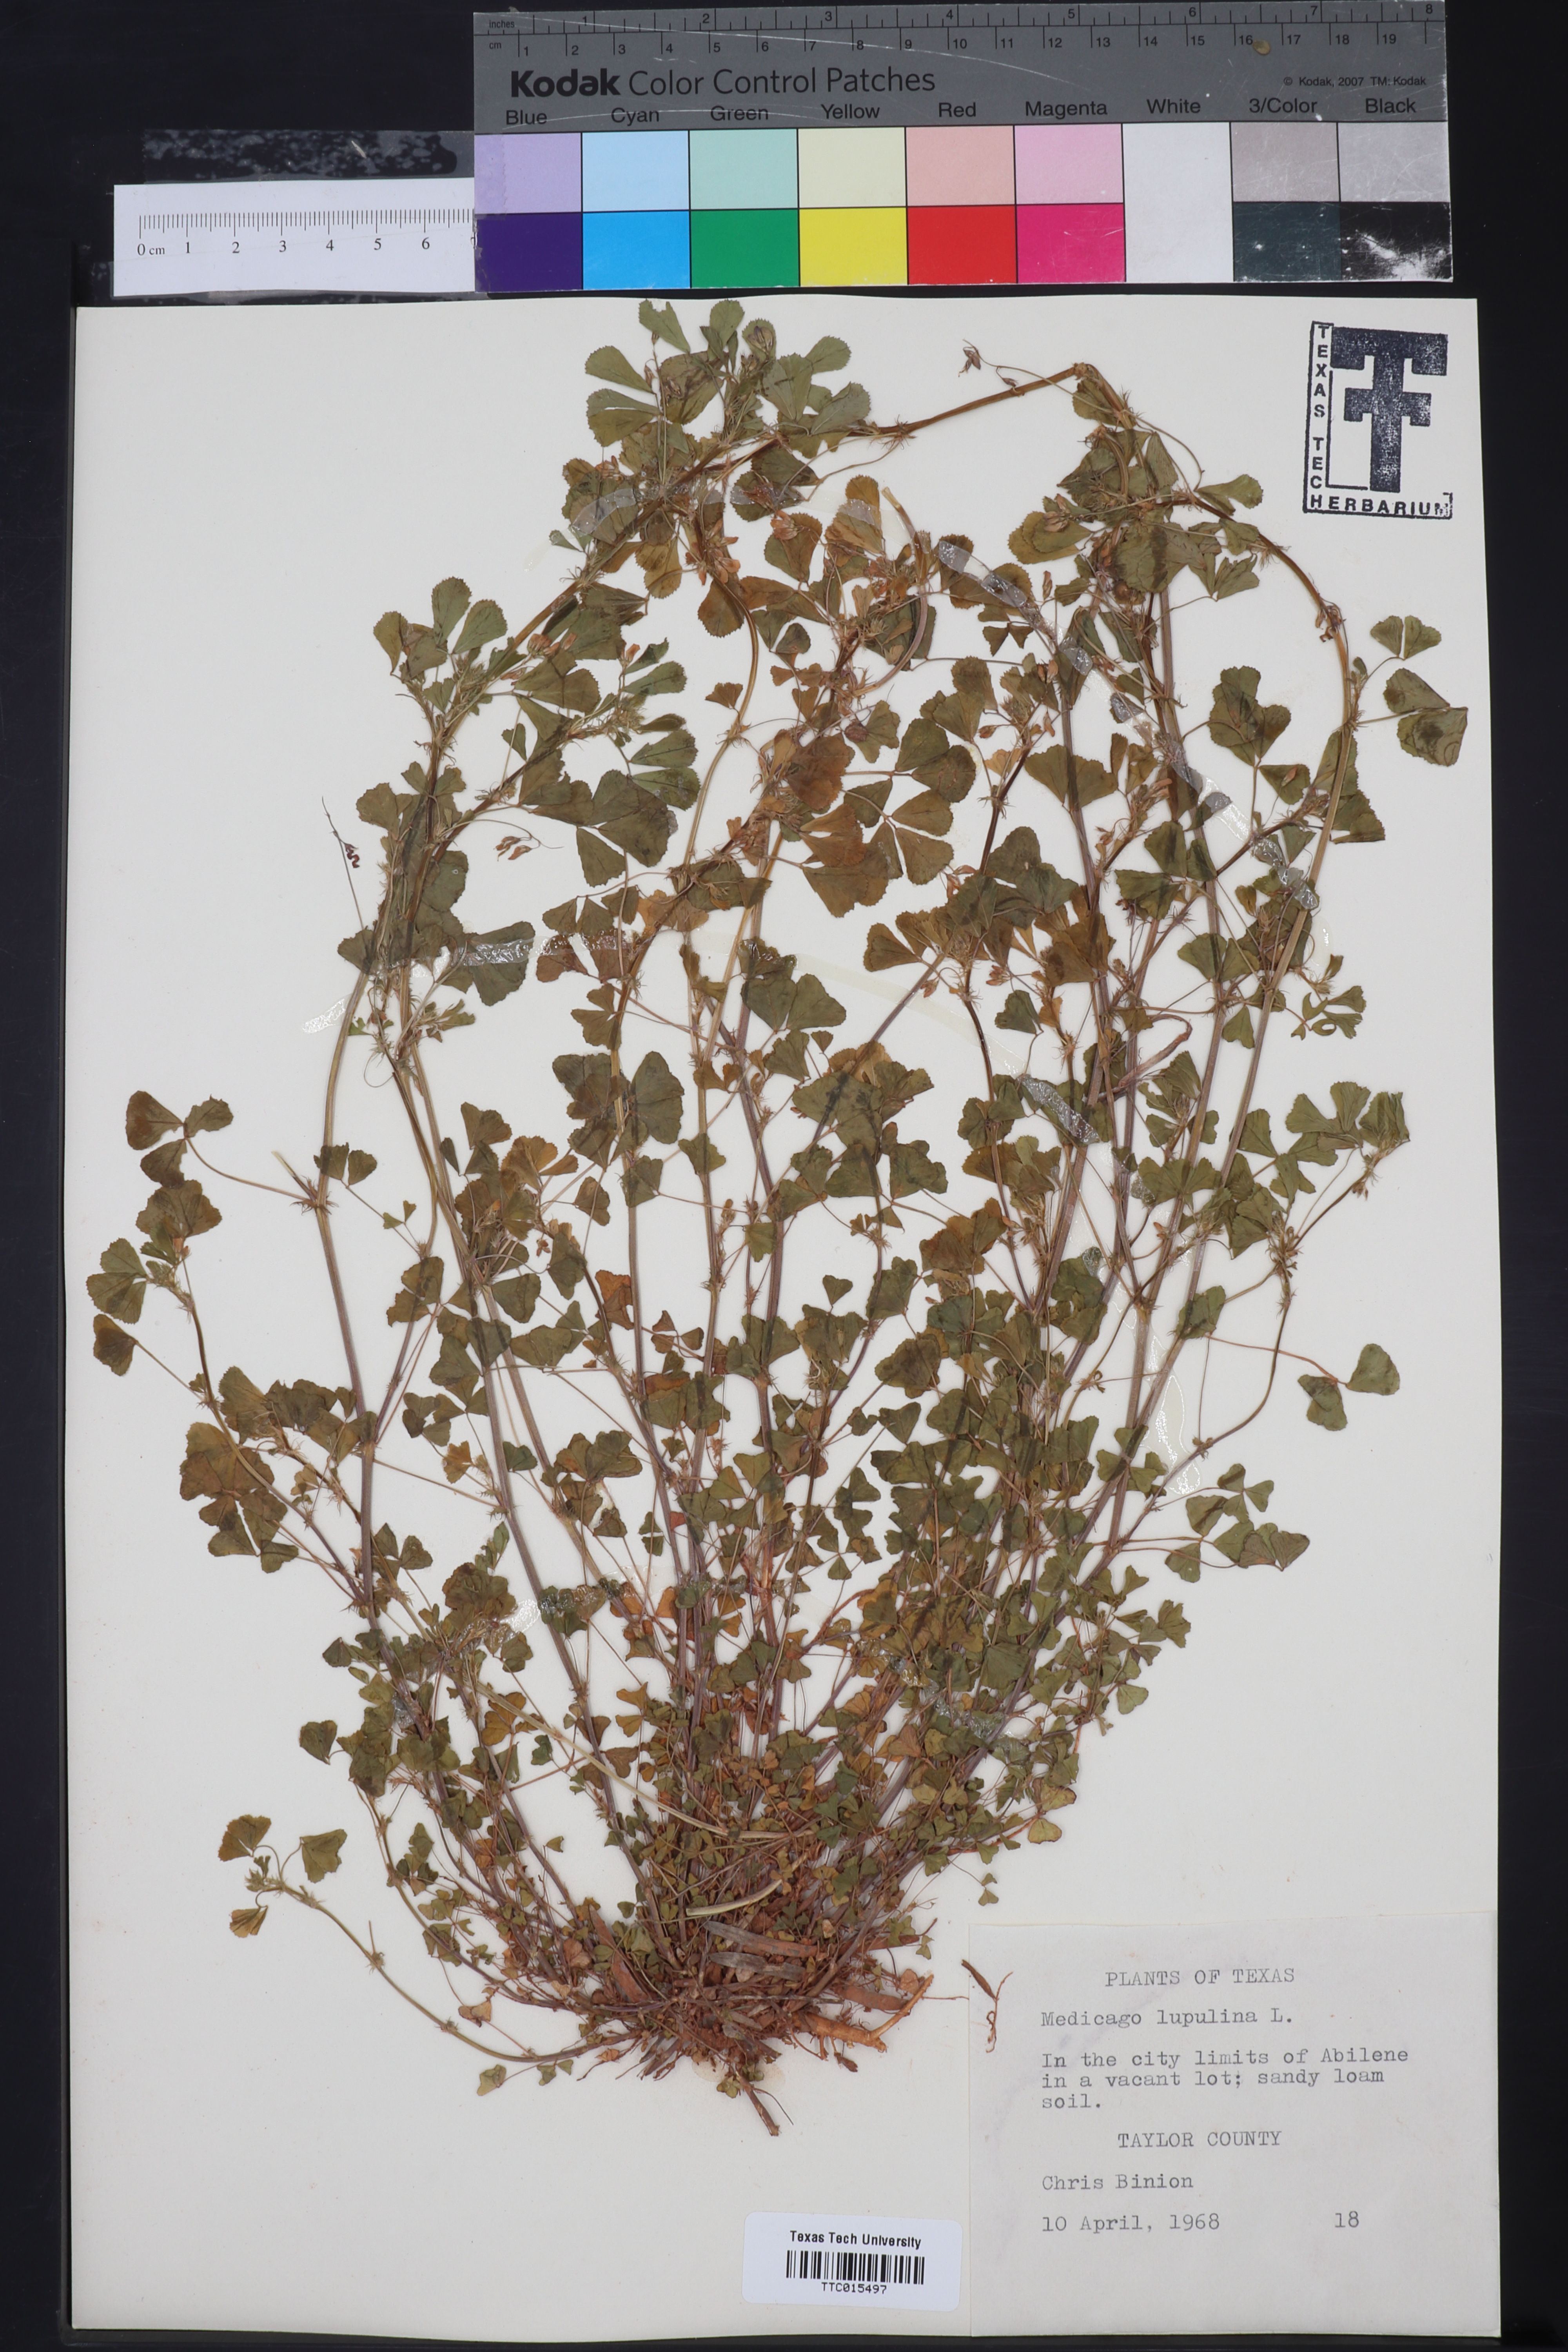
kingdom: Plantae
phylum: Tracheophyta
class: Magnoliopsida
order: Fabales
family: Fabaceae
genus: Medicago
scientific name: Medicago lupulina
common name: Black medick
